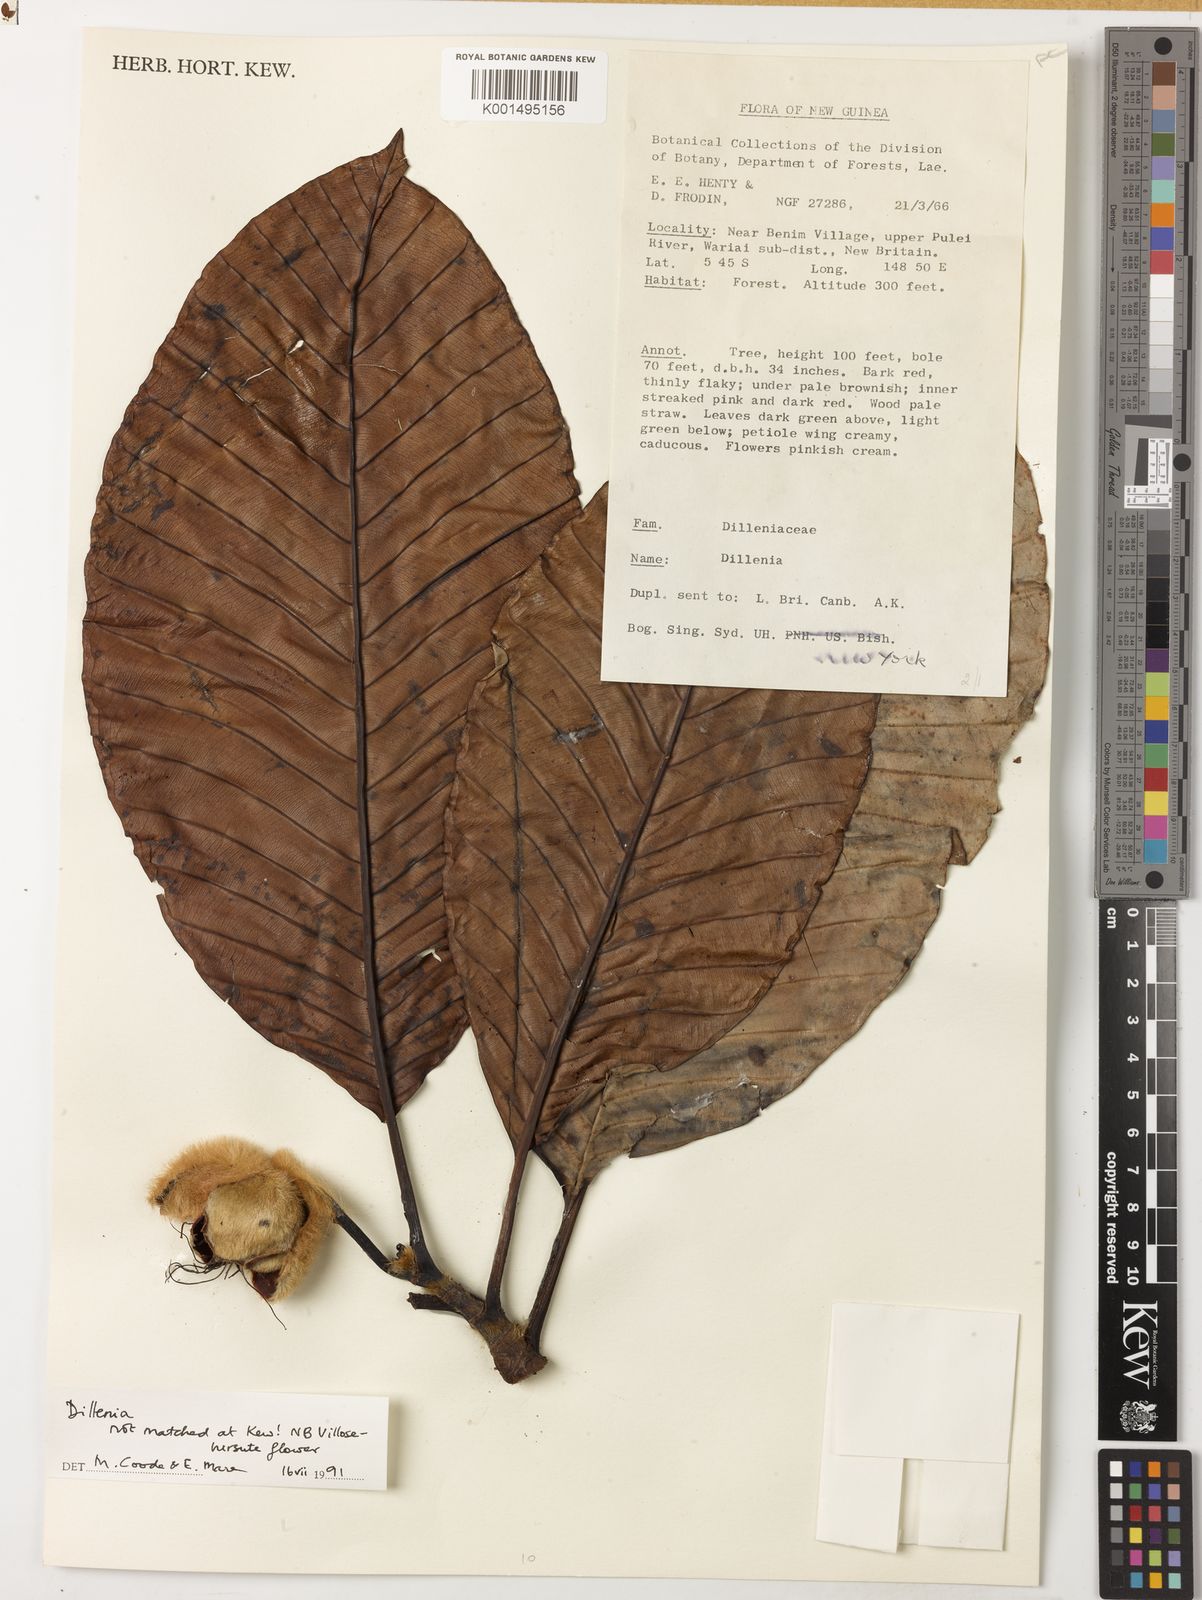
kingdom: Plantae
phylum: Tracheophyta
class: Magnoliopsida
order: Dilleniales
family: Dilleniaceae
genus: Dillenia
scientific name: Dillenia
